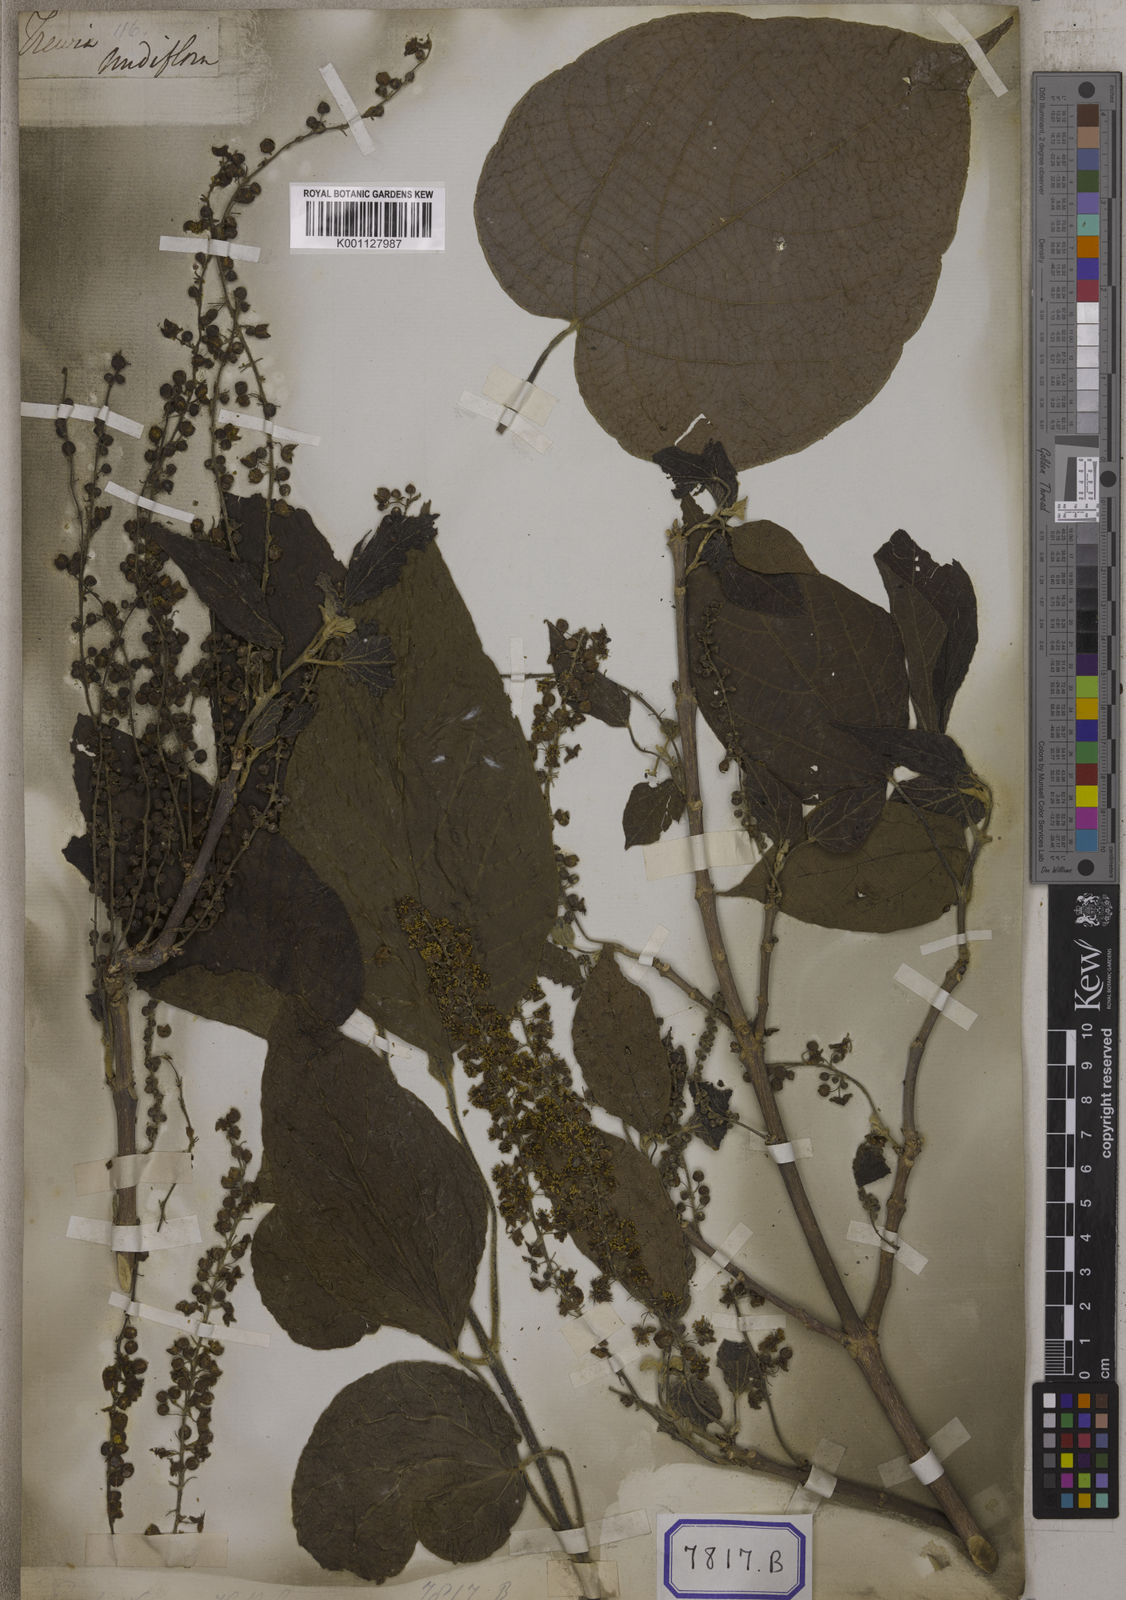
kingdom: Plantae
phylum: Tracheophyta
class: Magnoliopsida
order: Malpighiales
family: Euphorbiaceae
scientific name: Euphorbiaceae
